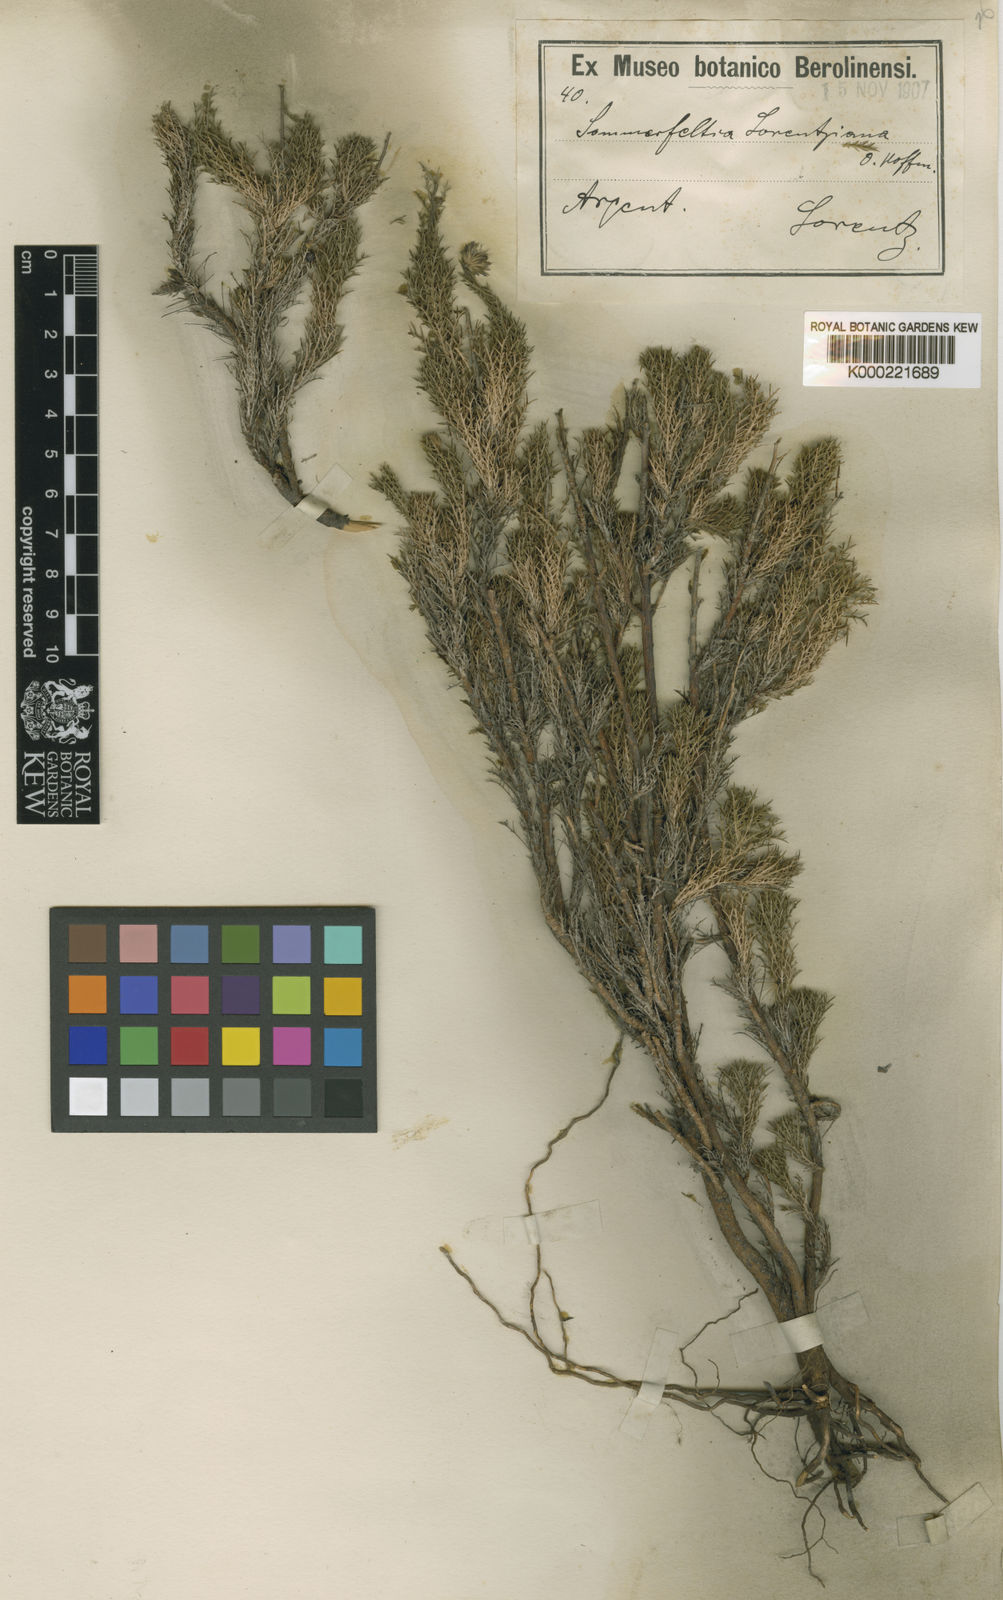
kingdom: Plantae
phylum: Tracheophyta
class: Magnoliopsida
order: Asterales
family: Asteraceae
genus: Sommerfeltia
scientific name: Sommerfeltia spinulosa
